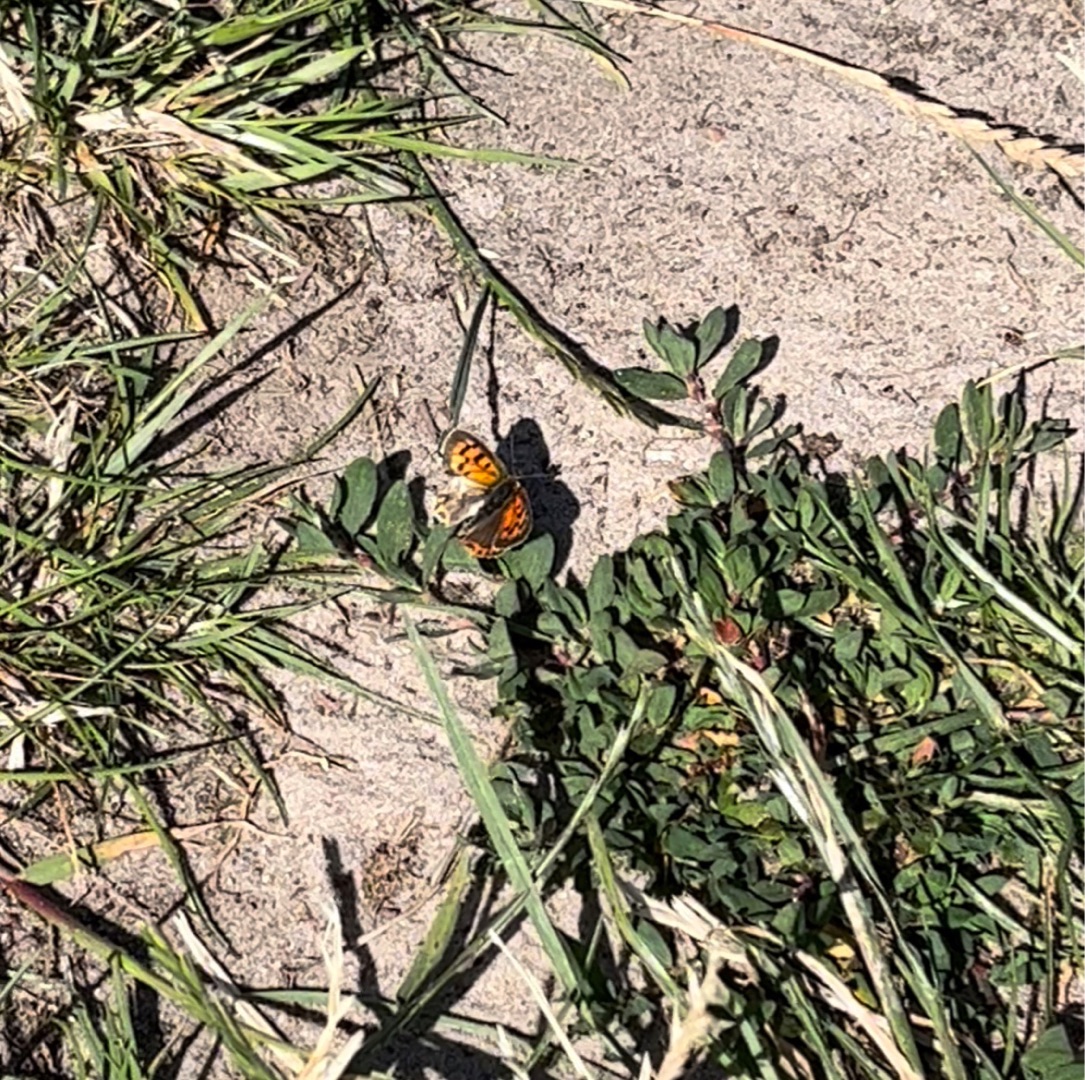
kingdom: Animalia
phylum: Arthropoda
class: Insecta
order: Lepidoptera
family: Lycaenidae
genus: Lycaena
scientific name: Lycaena phlaeas
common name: Lille ildfugl
